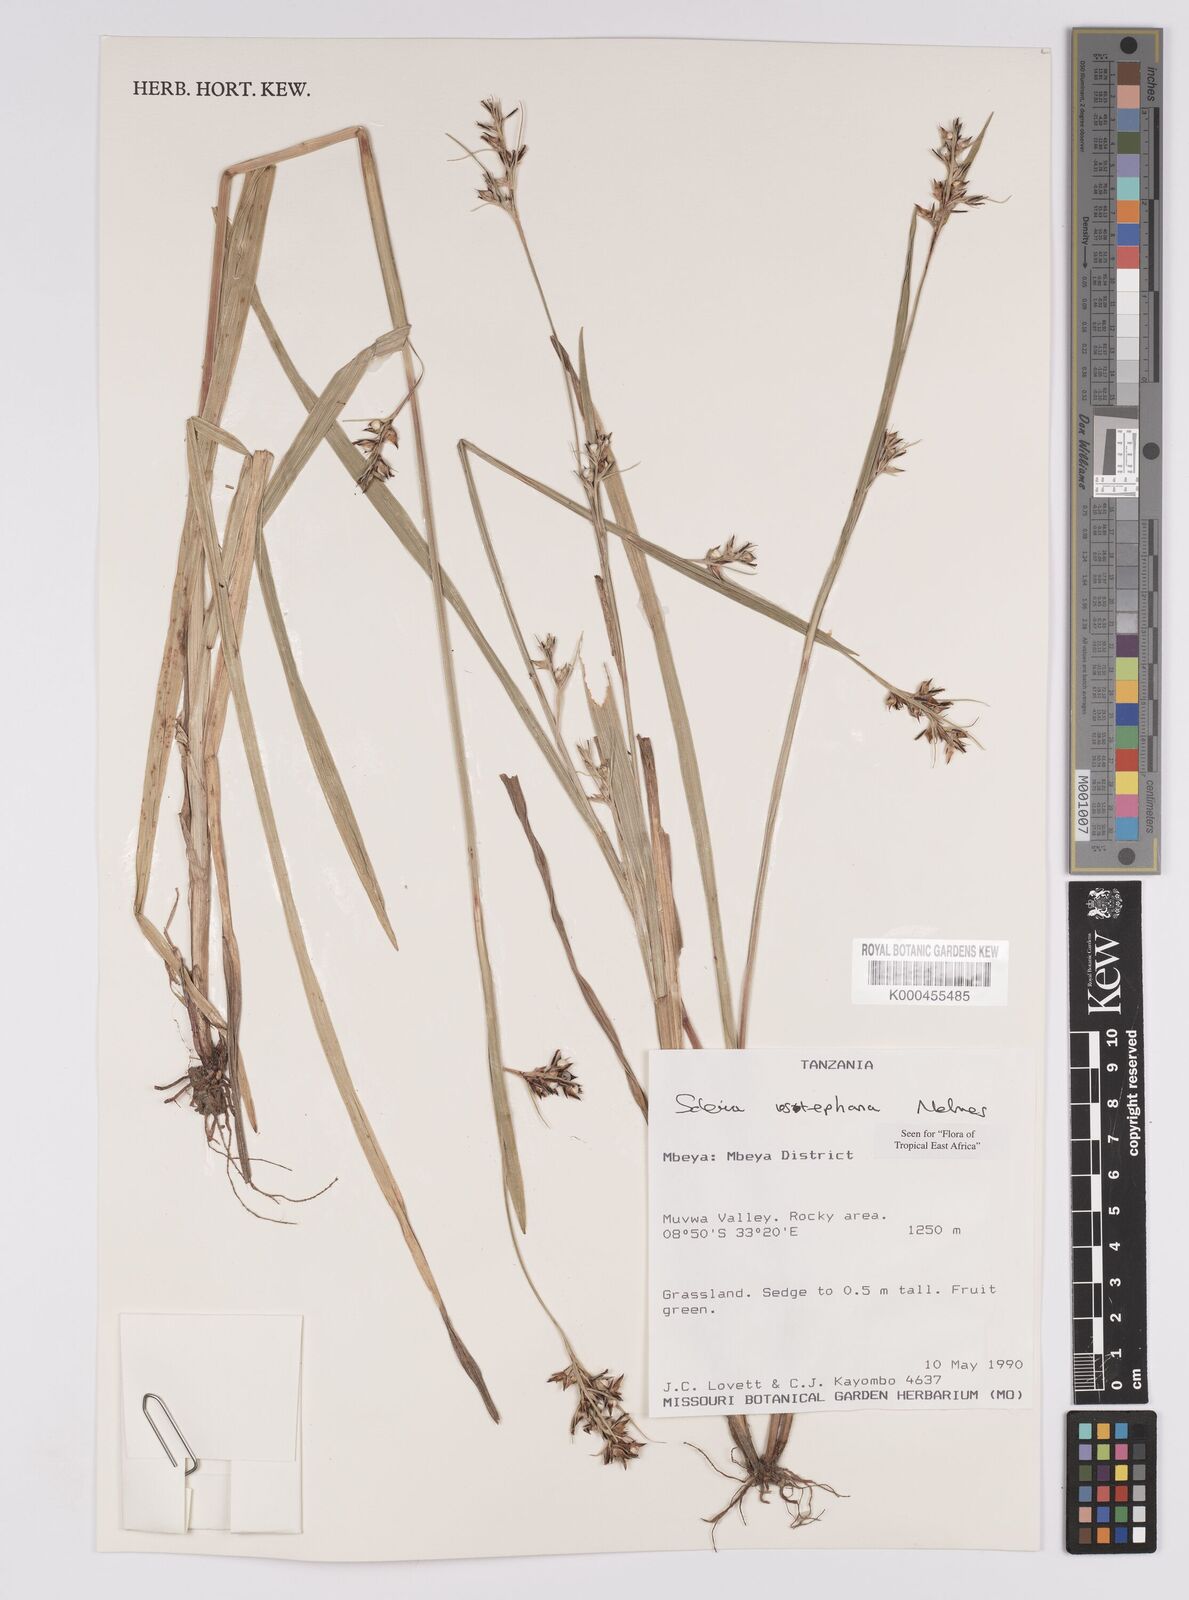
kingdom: Plantae
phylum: Tracheophyta
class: Liliopsida
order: Poales
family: Cyperaceae
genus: Scleria
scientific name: Scleria iostephana
